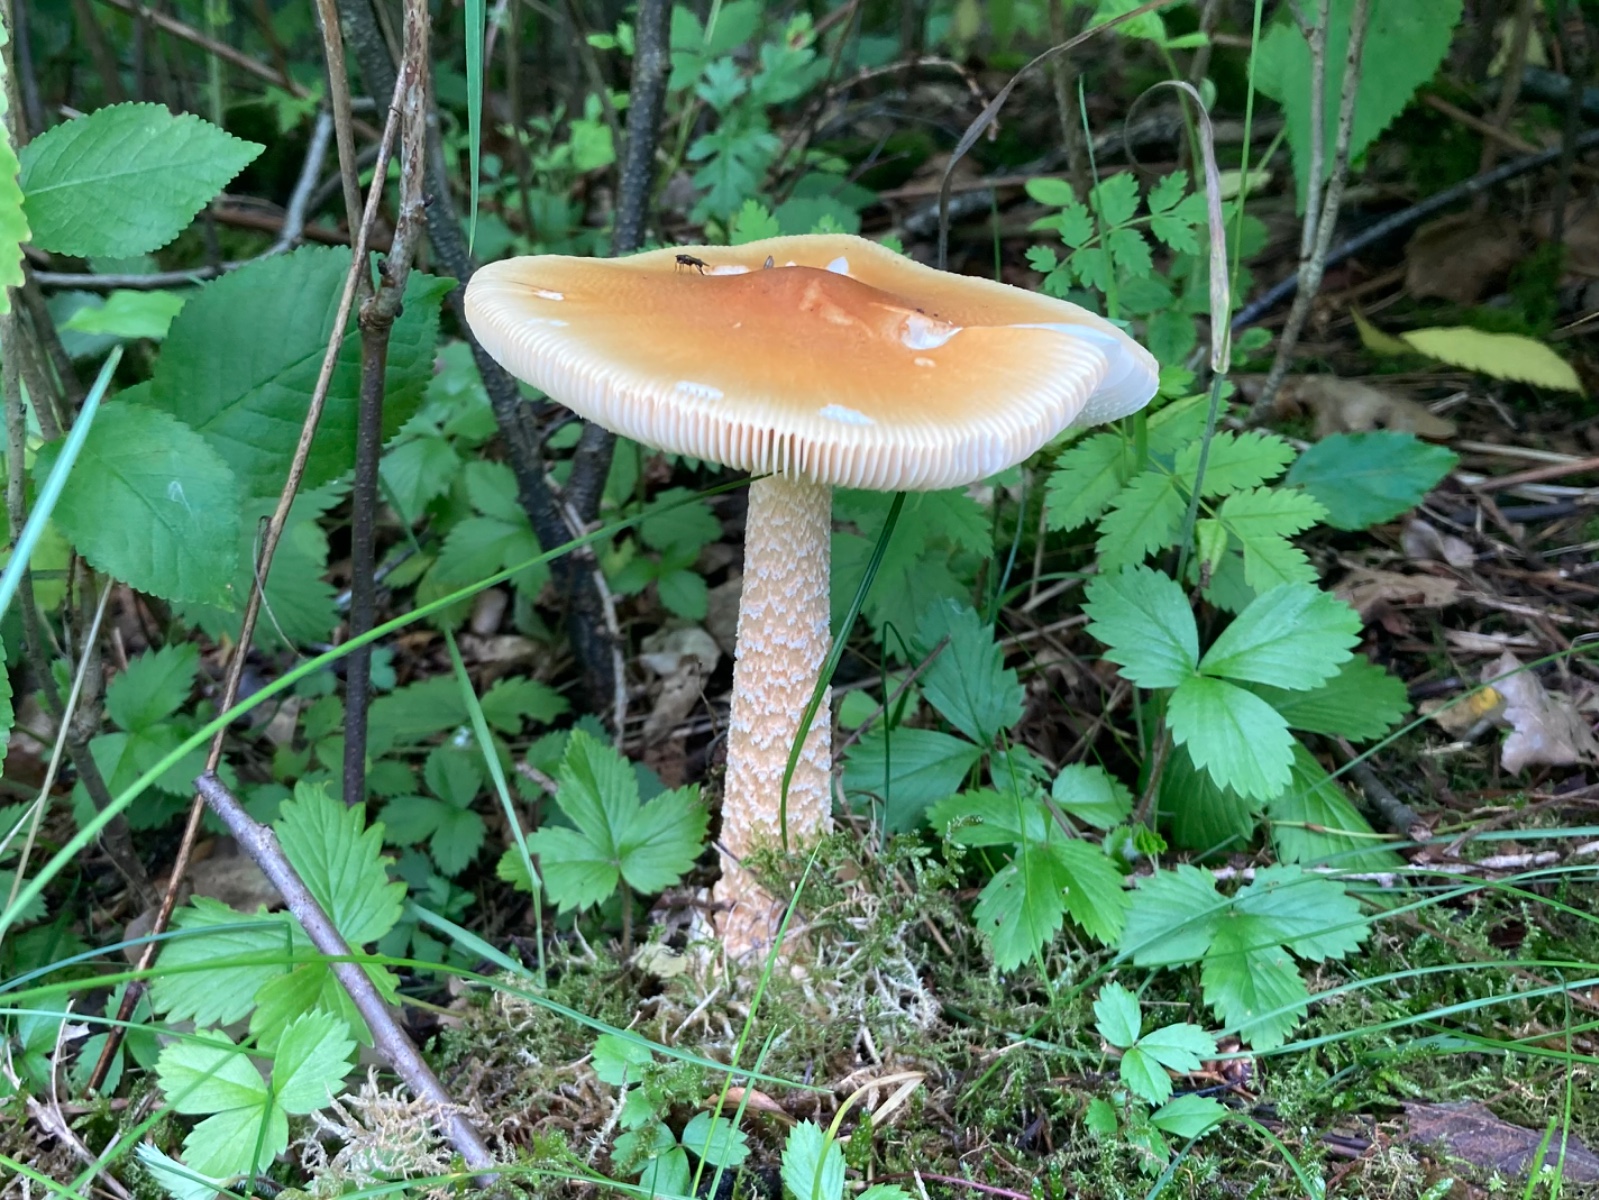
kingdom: Fungi
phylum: Basidiomycota
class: Agaricomycetes
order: Agaricales
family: Amanitaceae
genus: Amanita
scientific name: Amanita crocea
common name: gylden kam-fluesvamp
